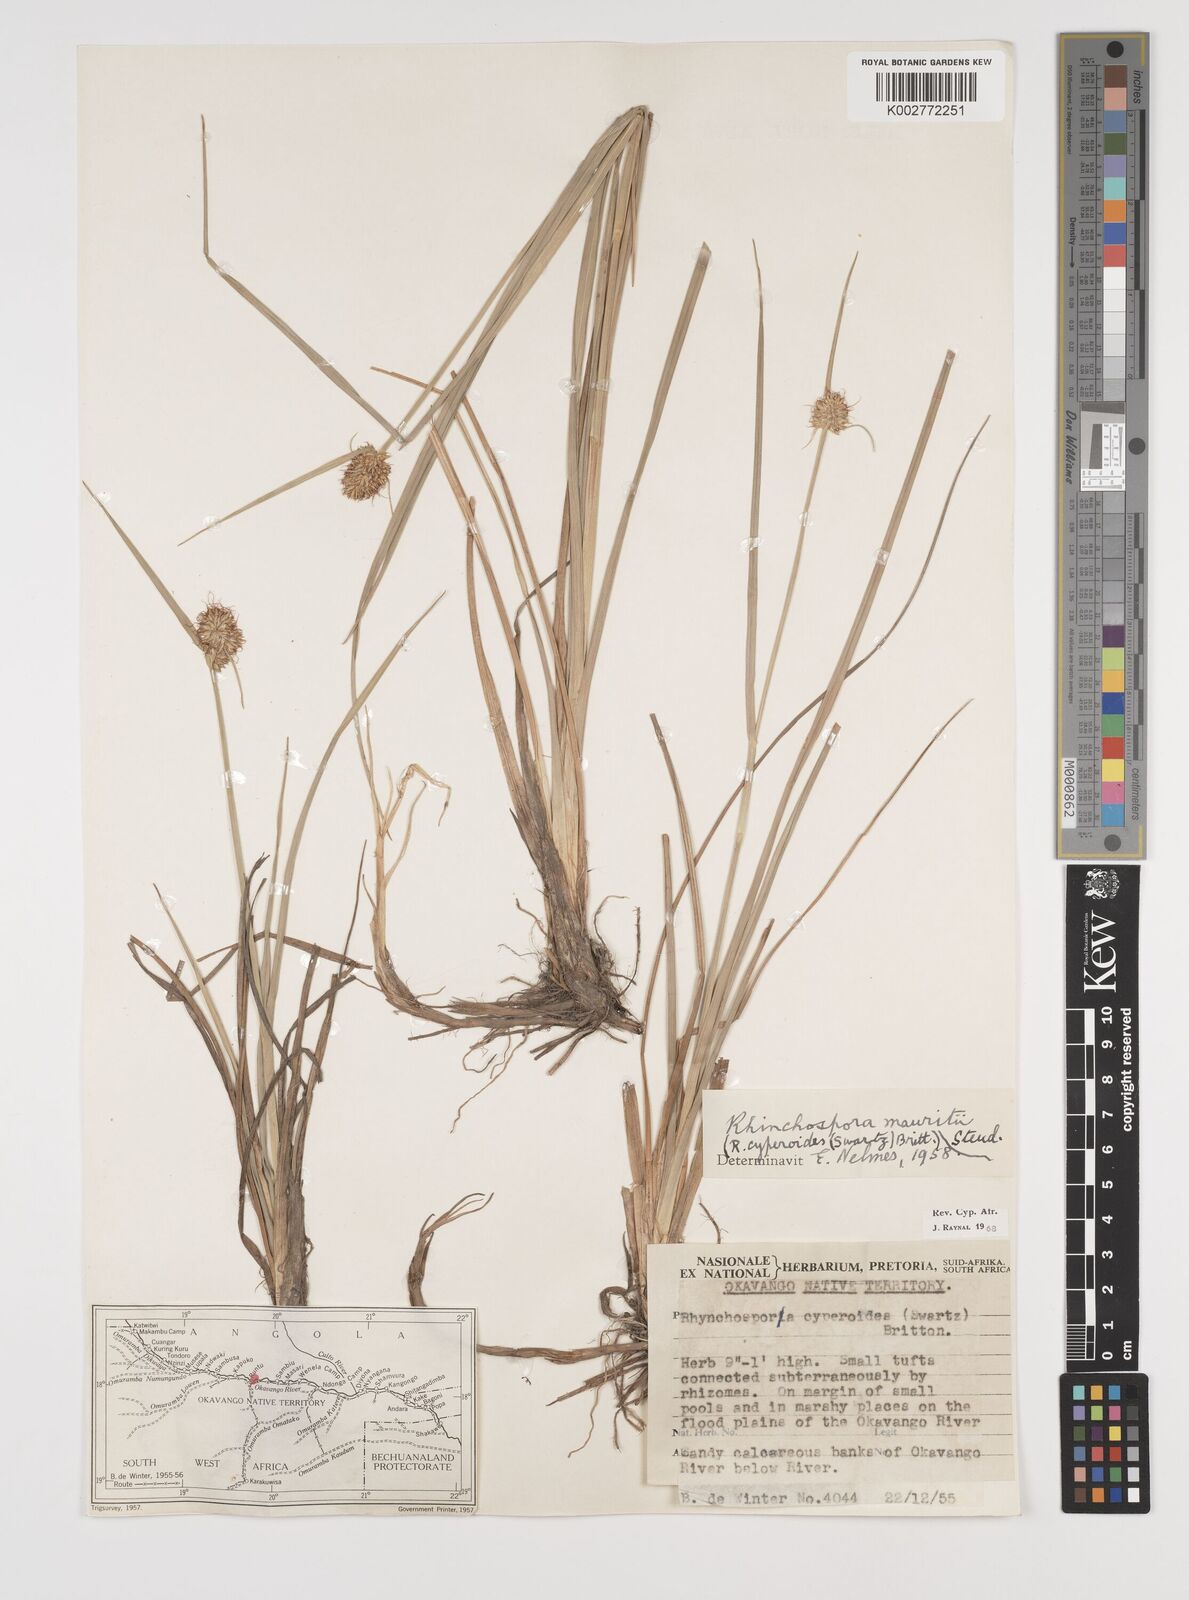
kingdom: Plantae
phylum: Tracheophyta
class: Liliopsida
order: Poales
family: Cyperaceae
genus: Rhynchospora
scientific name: Rhynchospora holoschoenoides
